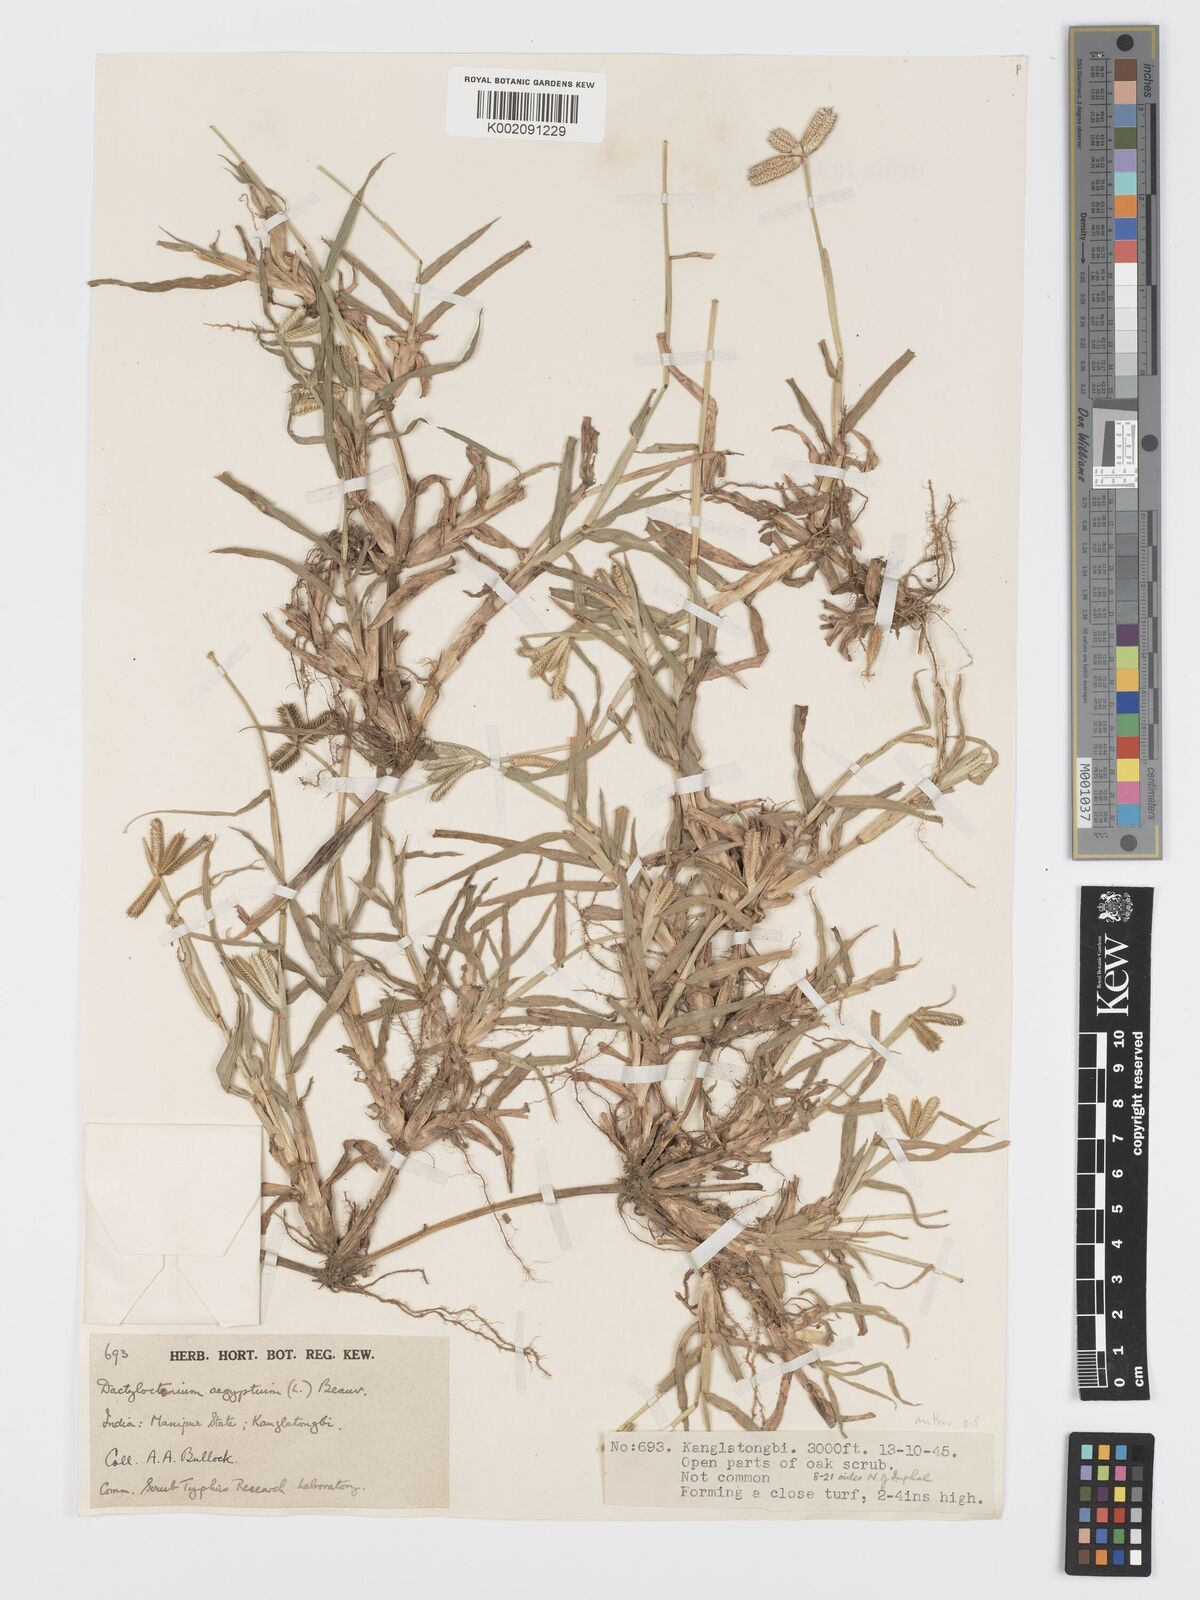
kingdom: Plantae
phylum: Tracheophyta
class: Liliopsida
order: Poales
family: Poaceae
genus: Dactyloctenium
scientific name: Dactyloctenium aegyptium
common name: Egyptian grass
